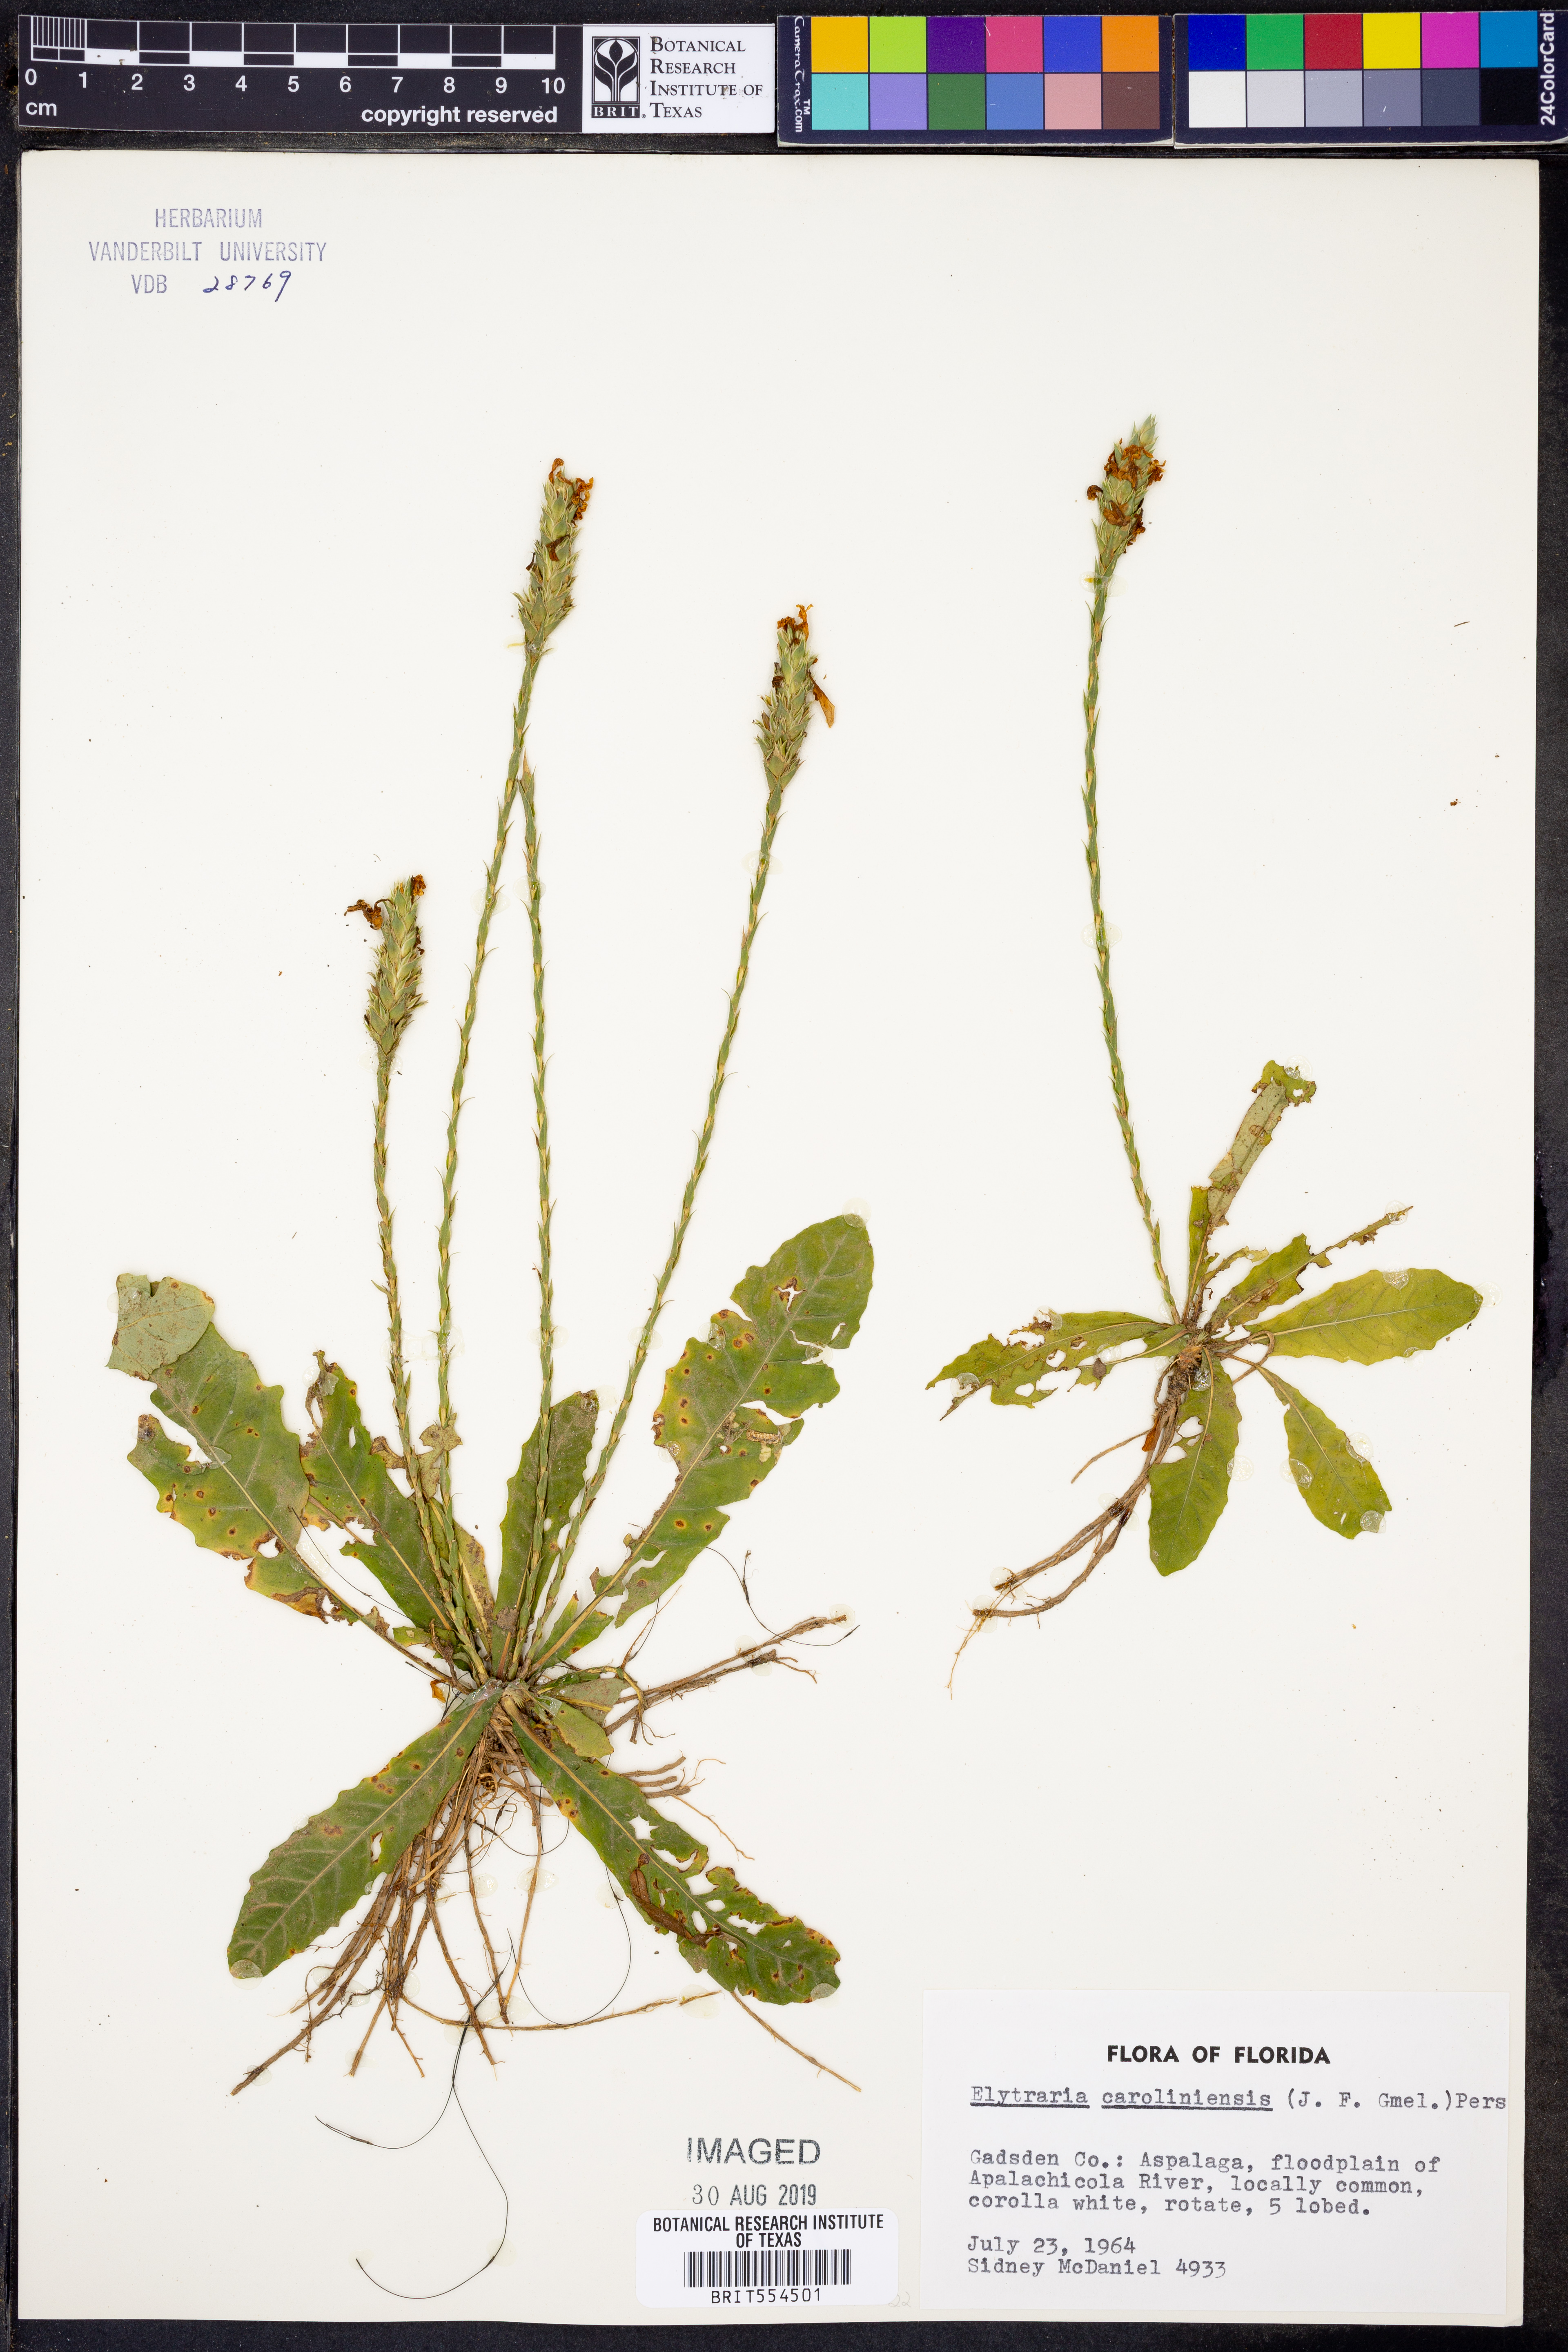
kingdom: Plantae
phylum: Tracheophyta
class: Magnoliopsida
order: Lamiales
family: Acanthaceae
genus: Elytraria
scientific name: Elytraria caroliniensis
